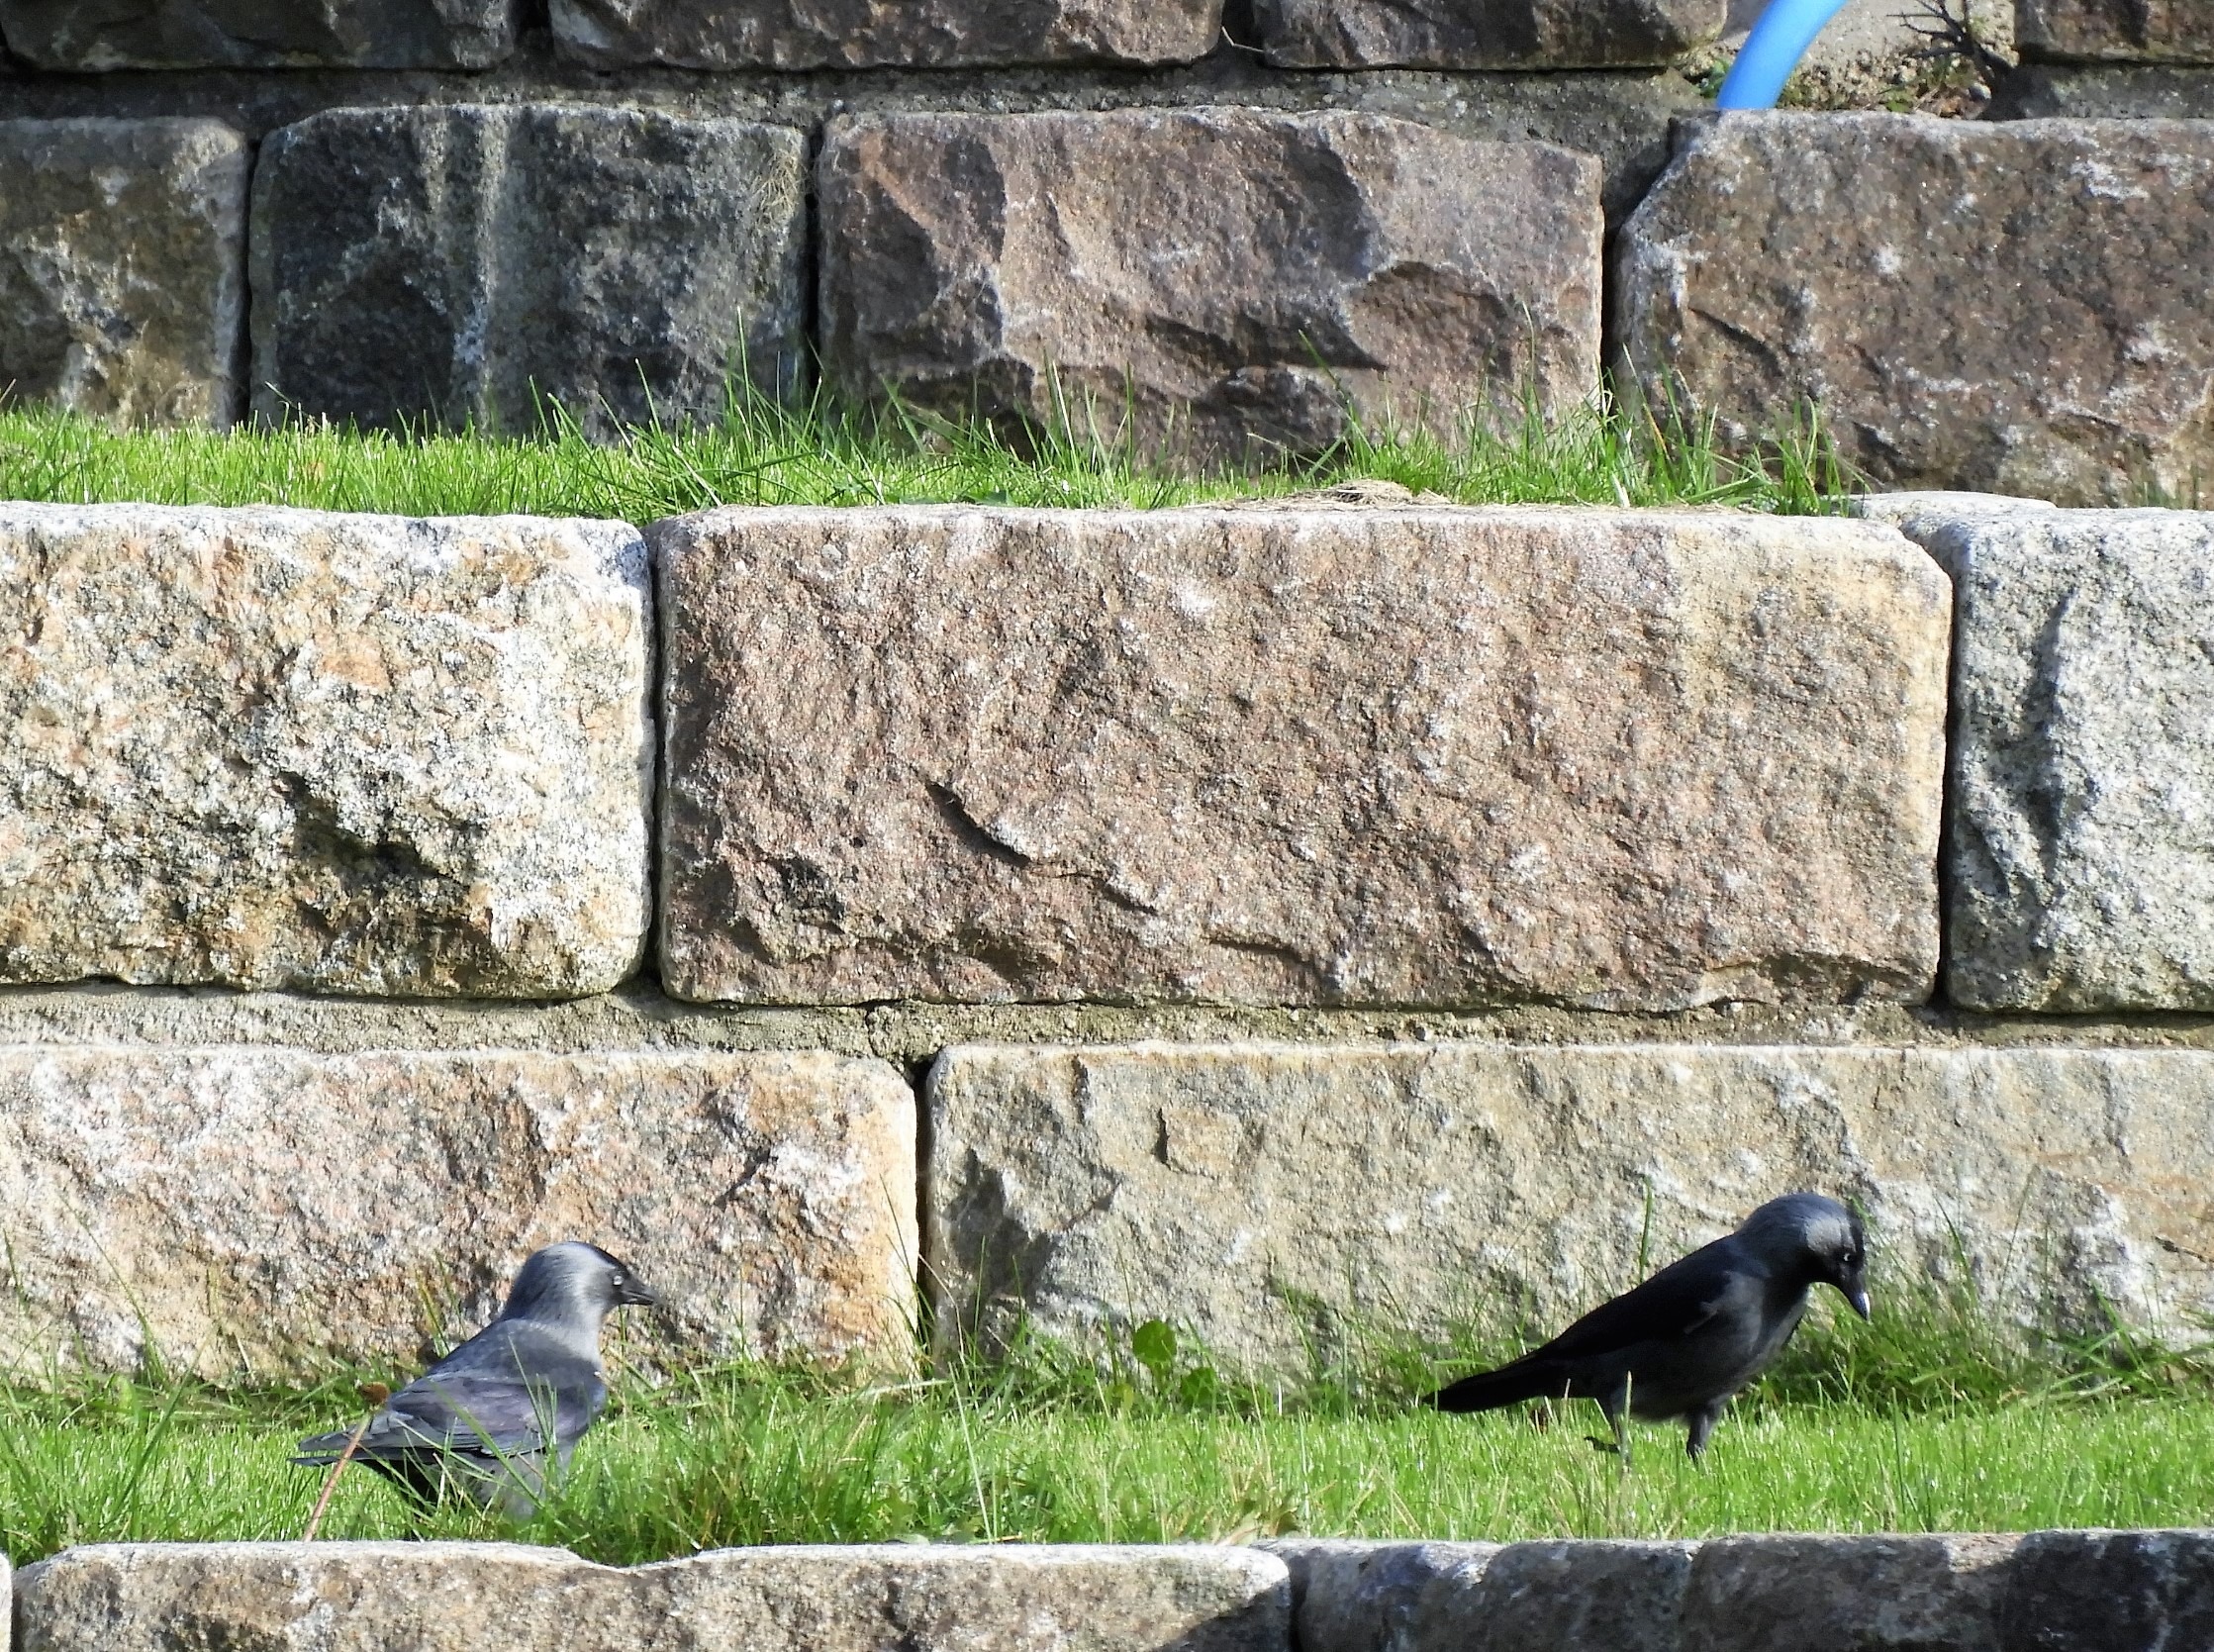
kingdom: Animalia
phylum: Chordata
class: Aves
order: Passeriformes
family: Corvidae
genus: Coloeus
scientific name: Coloeus monedula
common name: Allike
